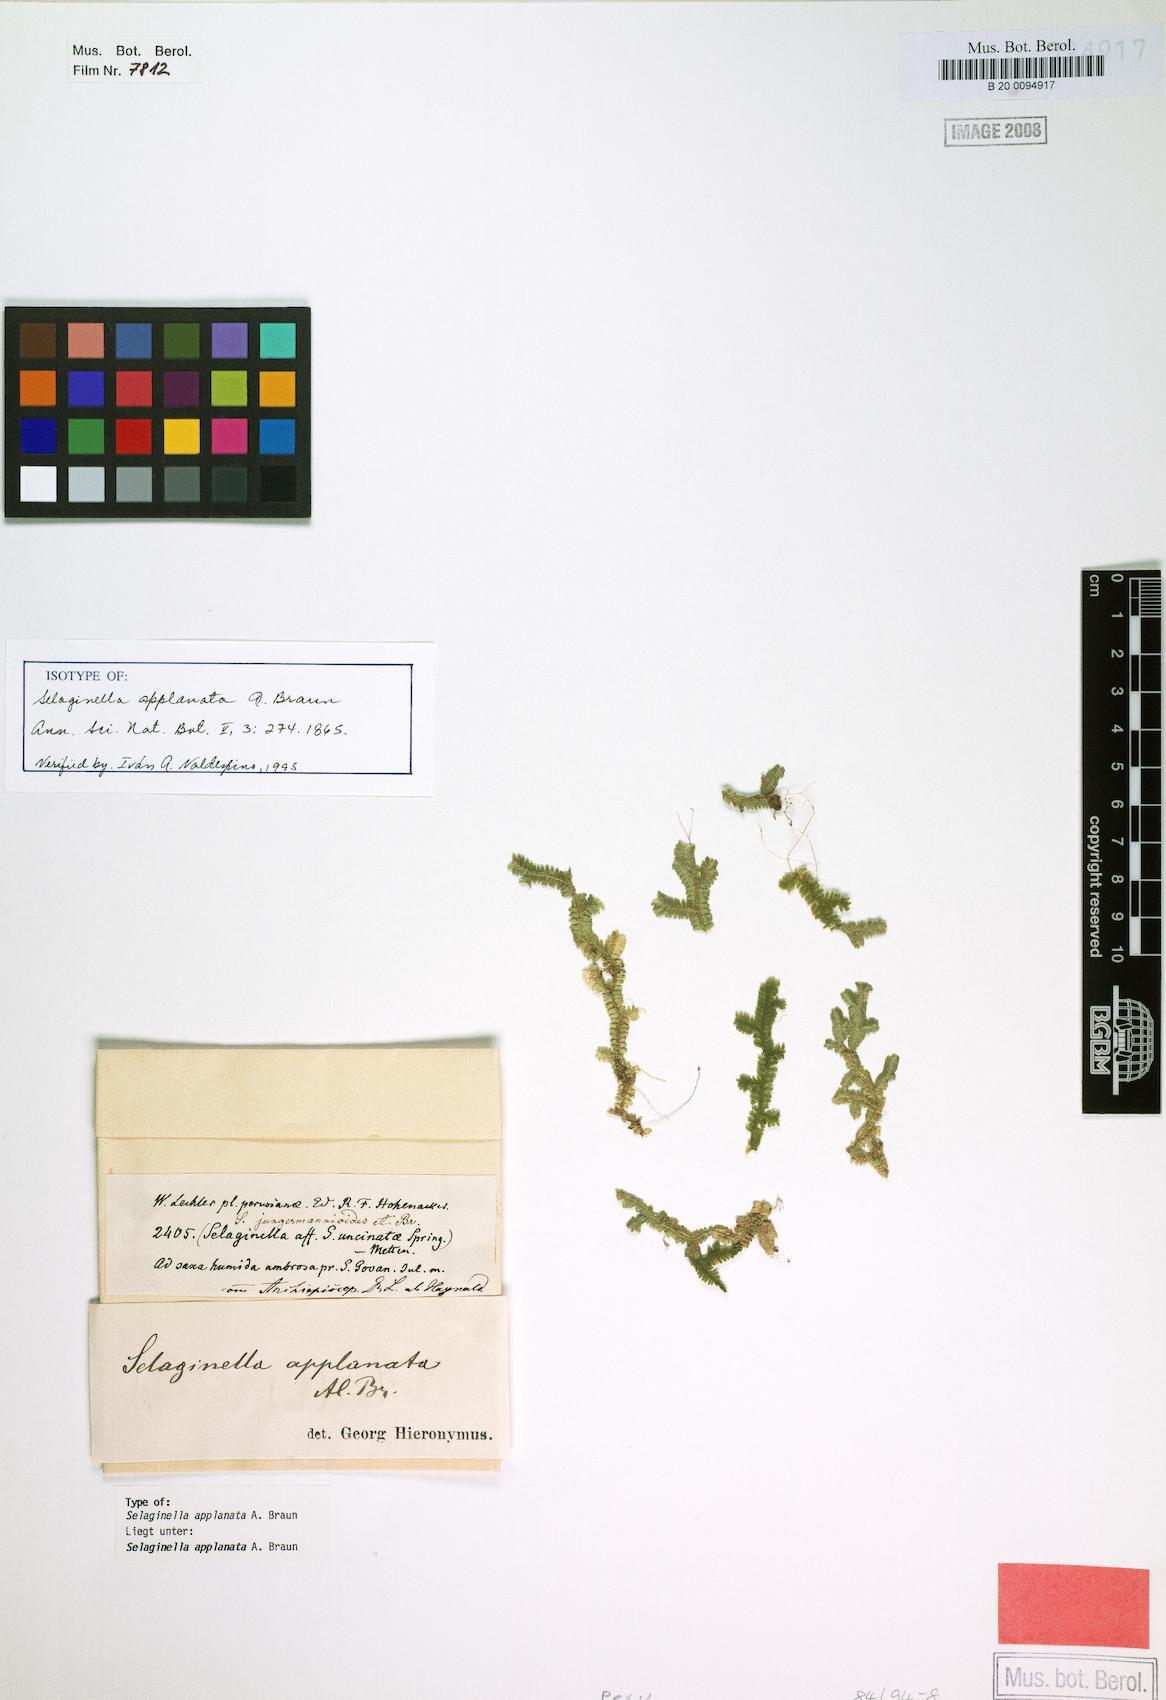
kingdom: Plantae
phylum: Tracheophyta
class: Lycopodiopsida
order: Selaginellales
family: Selaginellaceae
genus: Selaginella
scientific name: Selaginella applanata
